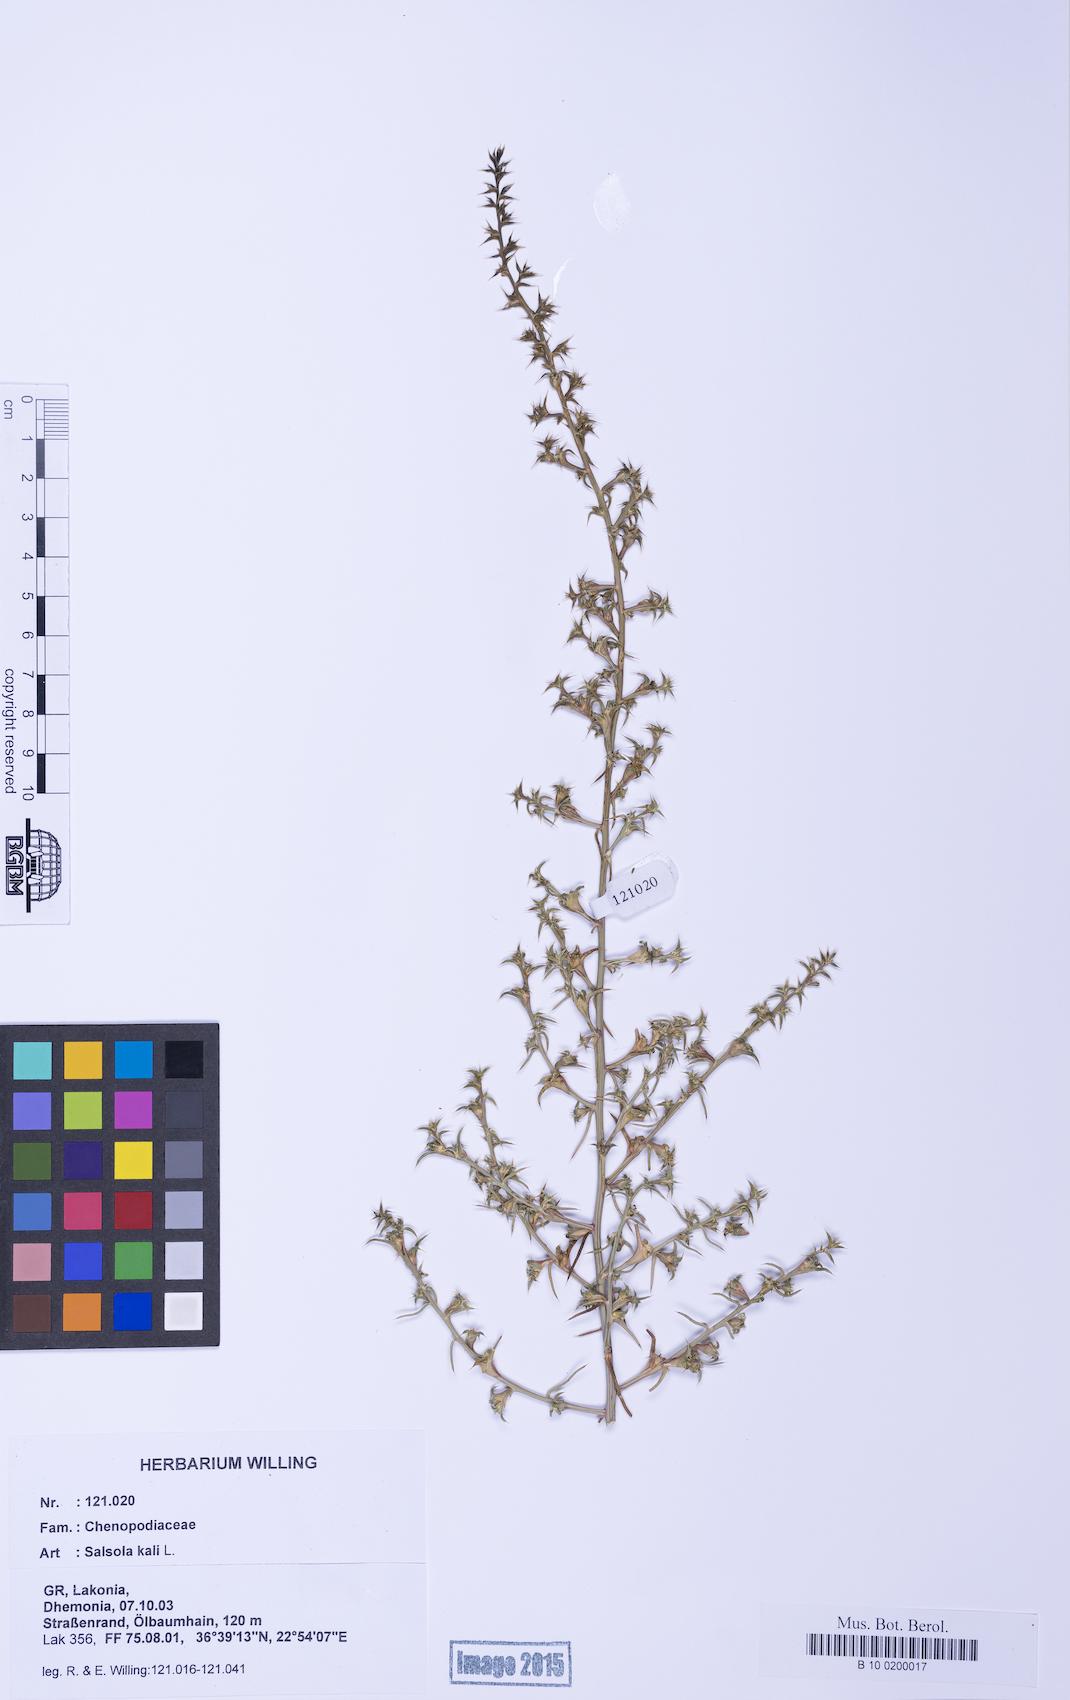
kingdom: Plantae
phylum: Tracheophyta
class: Magnoliopsida
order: Caryophyllales
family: Amaranthaceae
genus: Salsola
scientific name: Salsola tragus
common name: Prickly russian thistle
